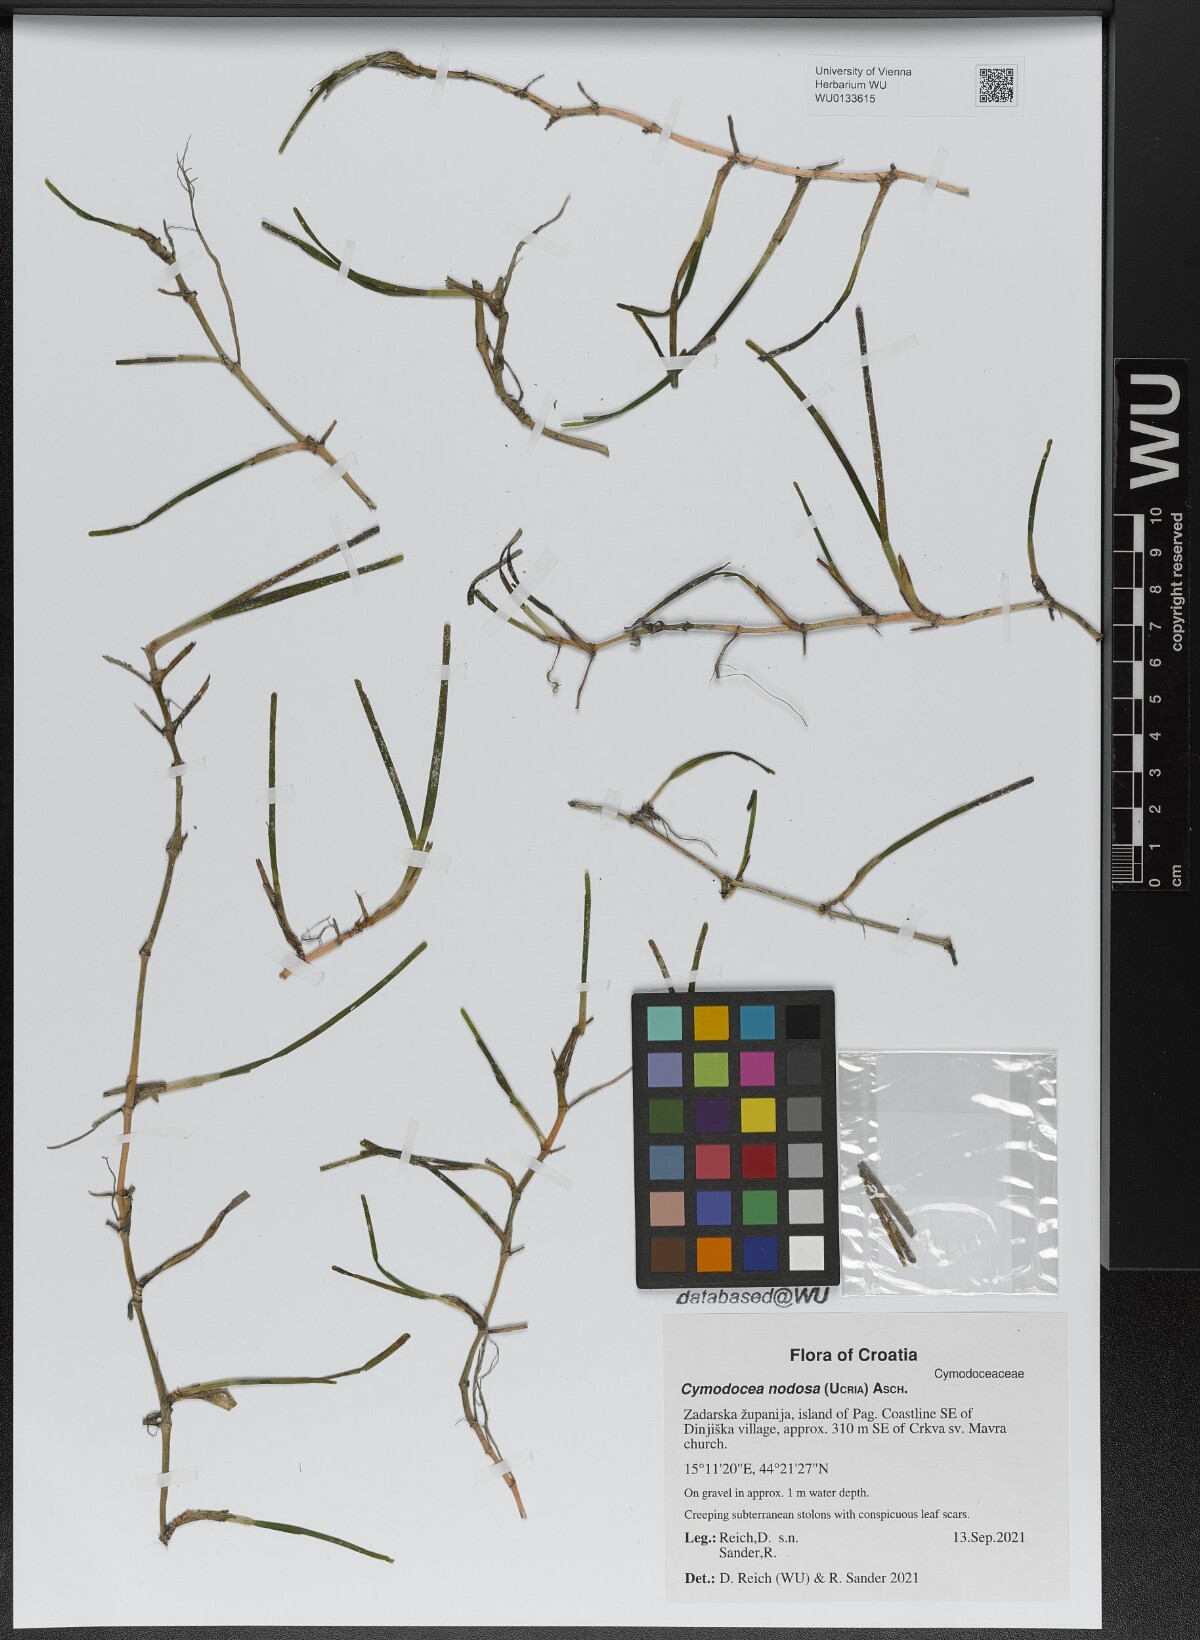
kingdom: Plantae
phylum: Tracheophyta
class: Liliopsida
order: Alismatales
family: Cymodoceaceae
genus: Cymodocea
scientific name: Cymodocea nodosa
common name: Slender seagrass
